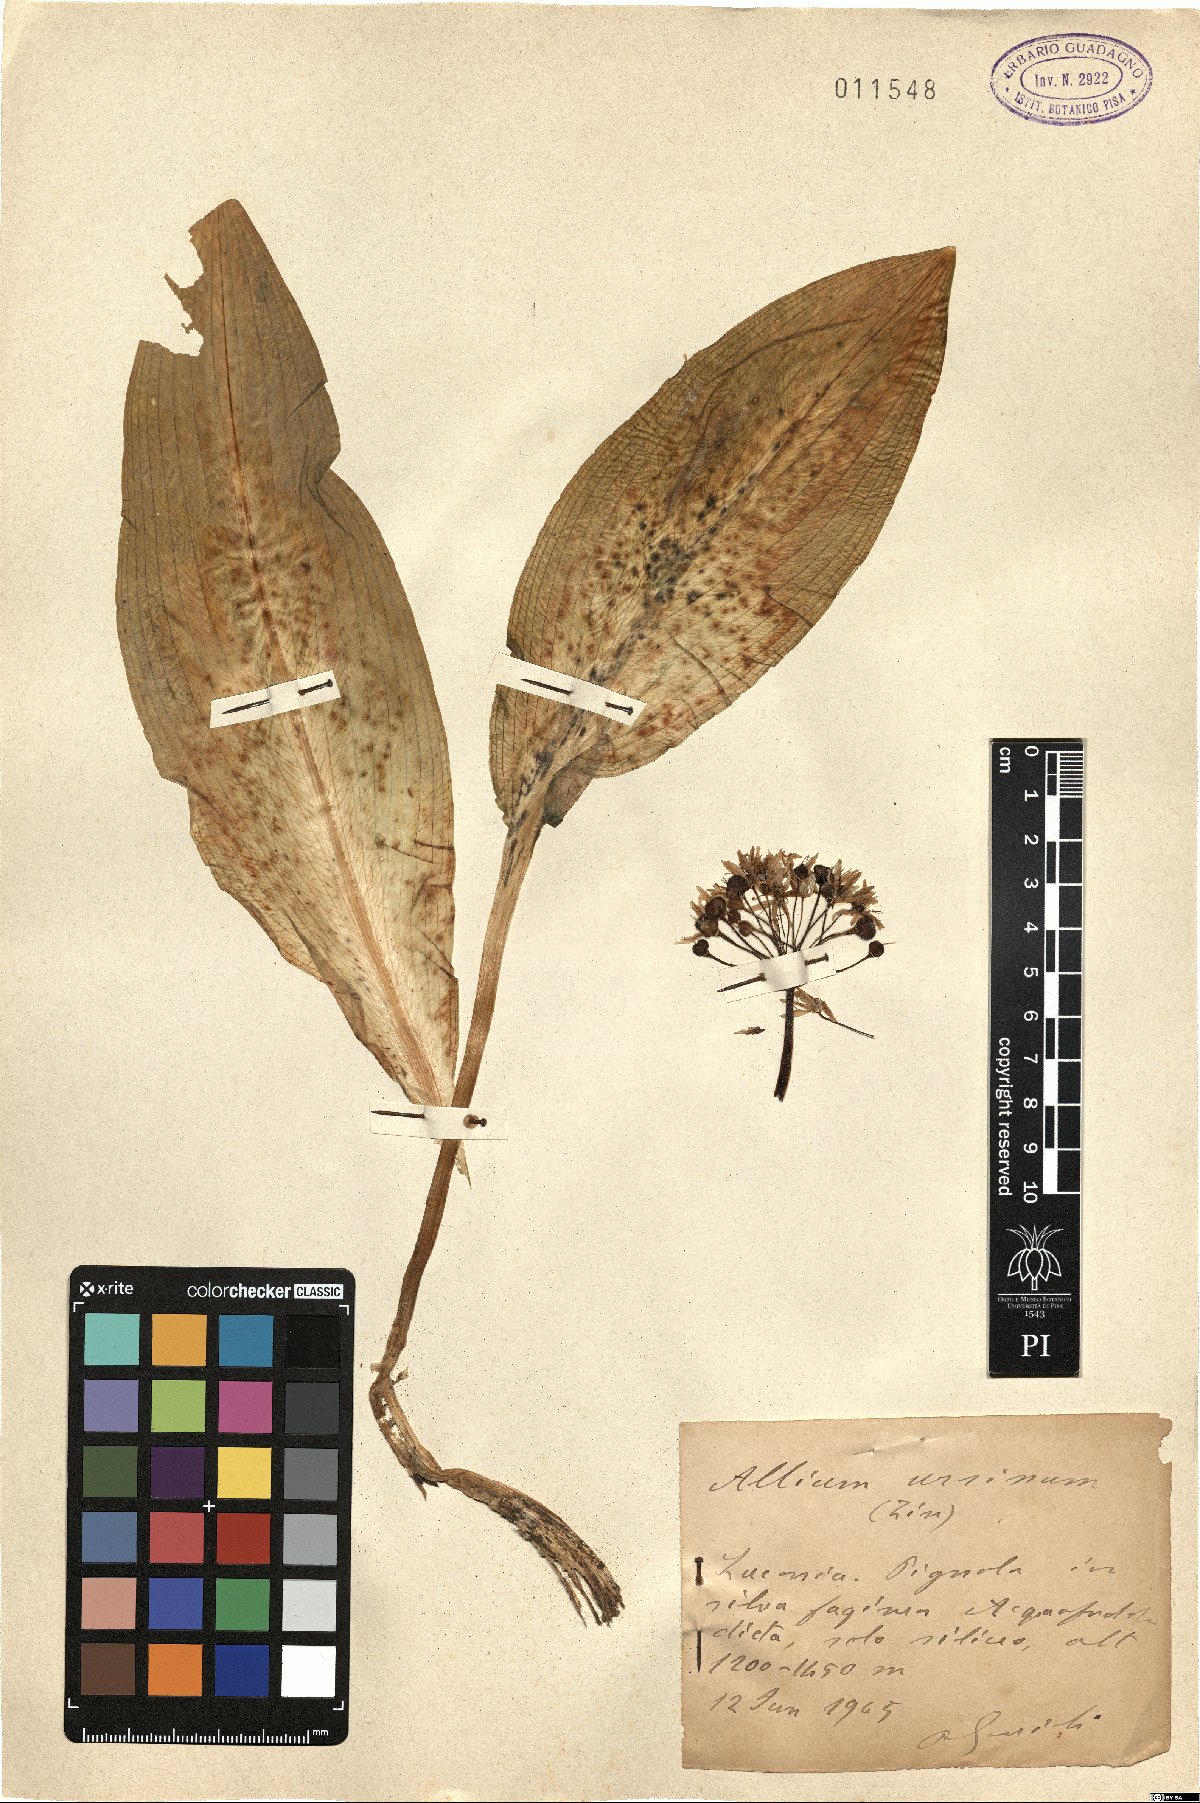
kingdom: Plantae
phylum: Tracheophyta
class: Liliopsida
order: Asparagales
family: Amaryllidaceae
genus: Allium
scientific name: Allium ursinum
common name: Ramsons
